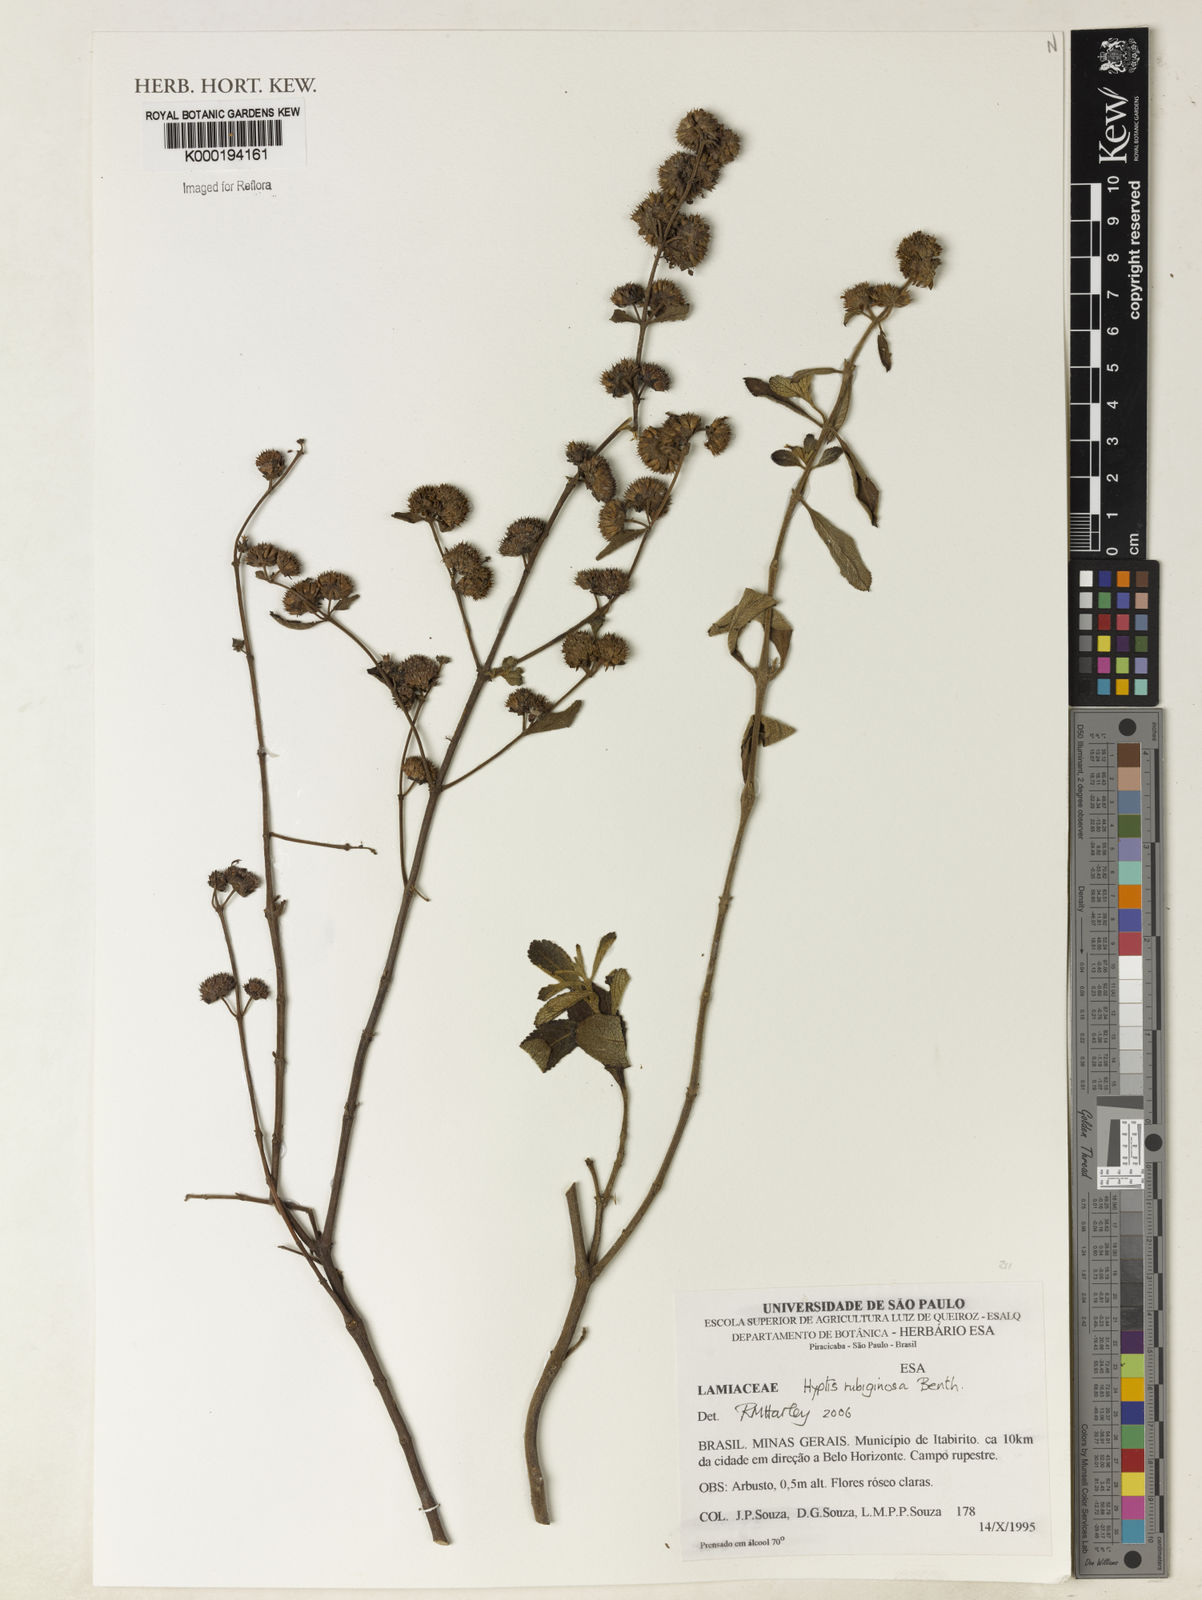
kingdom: Plantae
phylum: Tracheophyta
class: Magnoliopsida
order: Lamiales
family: Lamiaceae
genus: Hyptis
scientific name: Hyptis rubiginosa
